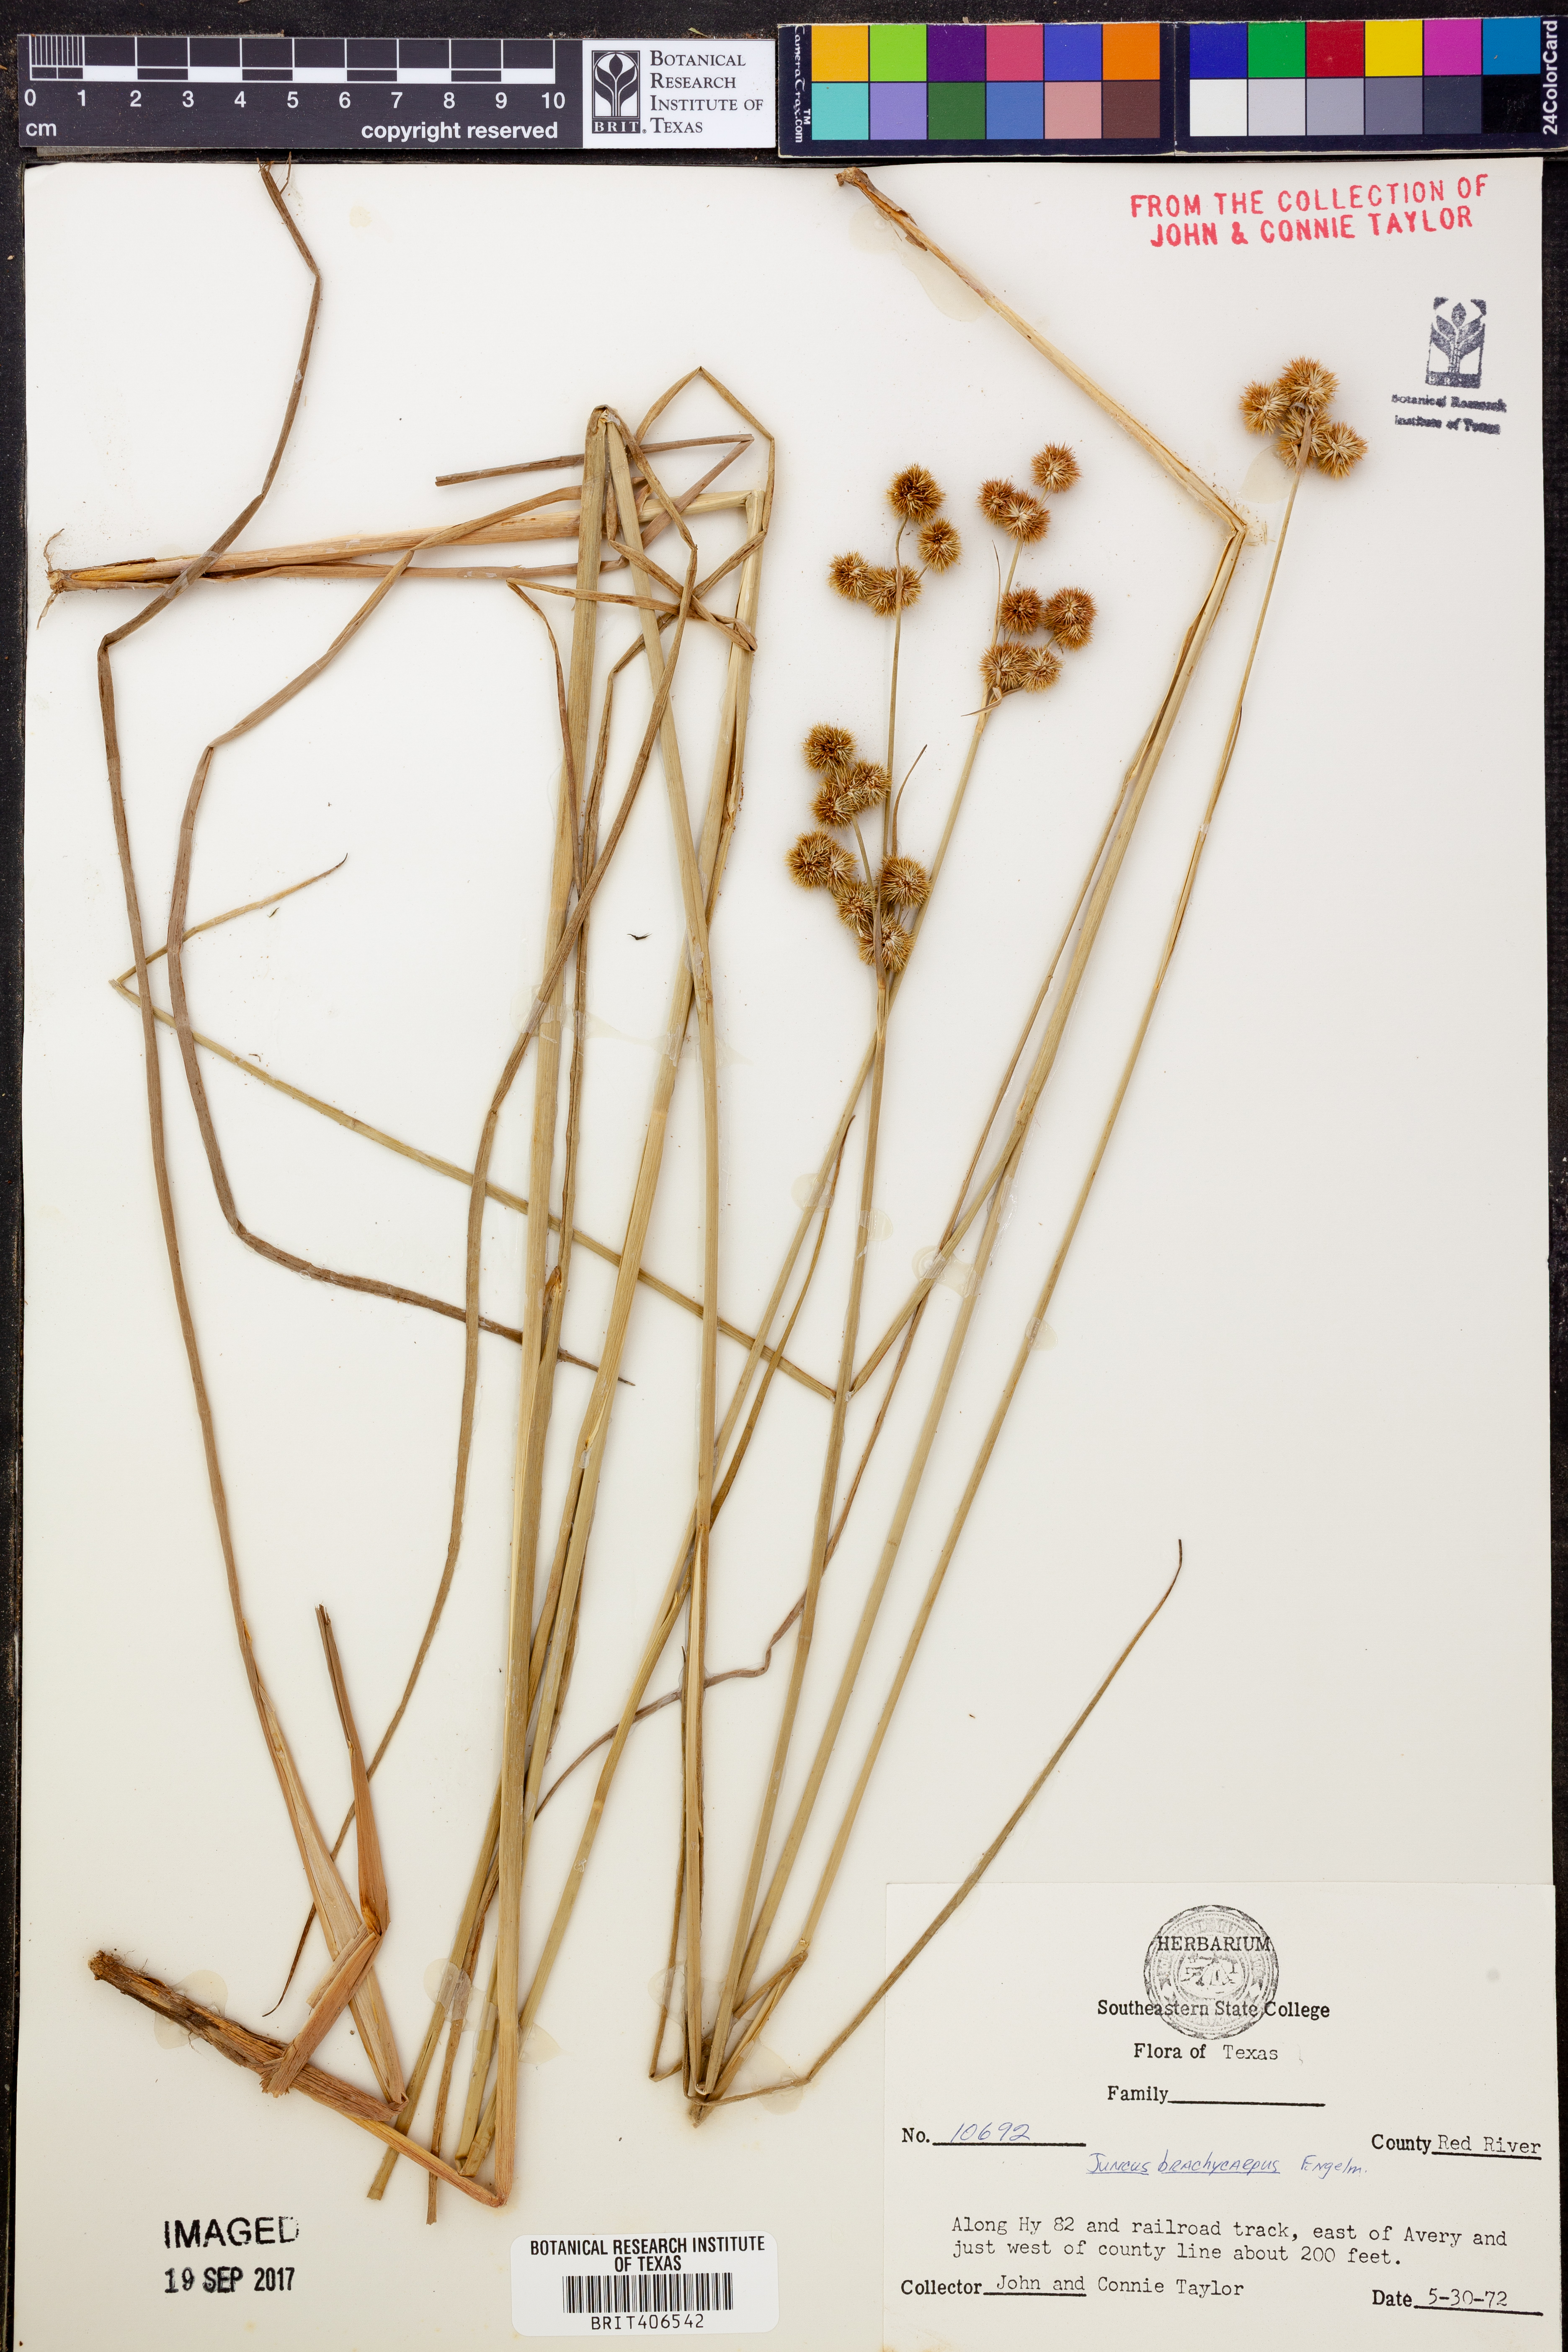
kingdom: Plantae
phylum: Tracheophyta
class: Liliopsida
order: Poales
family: Juncaceae
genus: Juncus
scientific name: Juncus brachycarpus
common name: Shore rush
